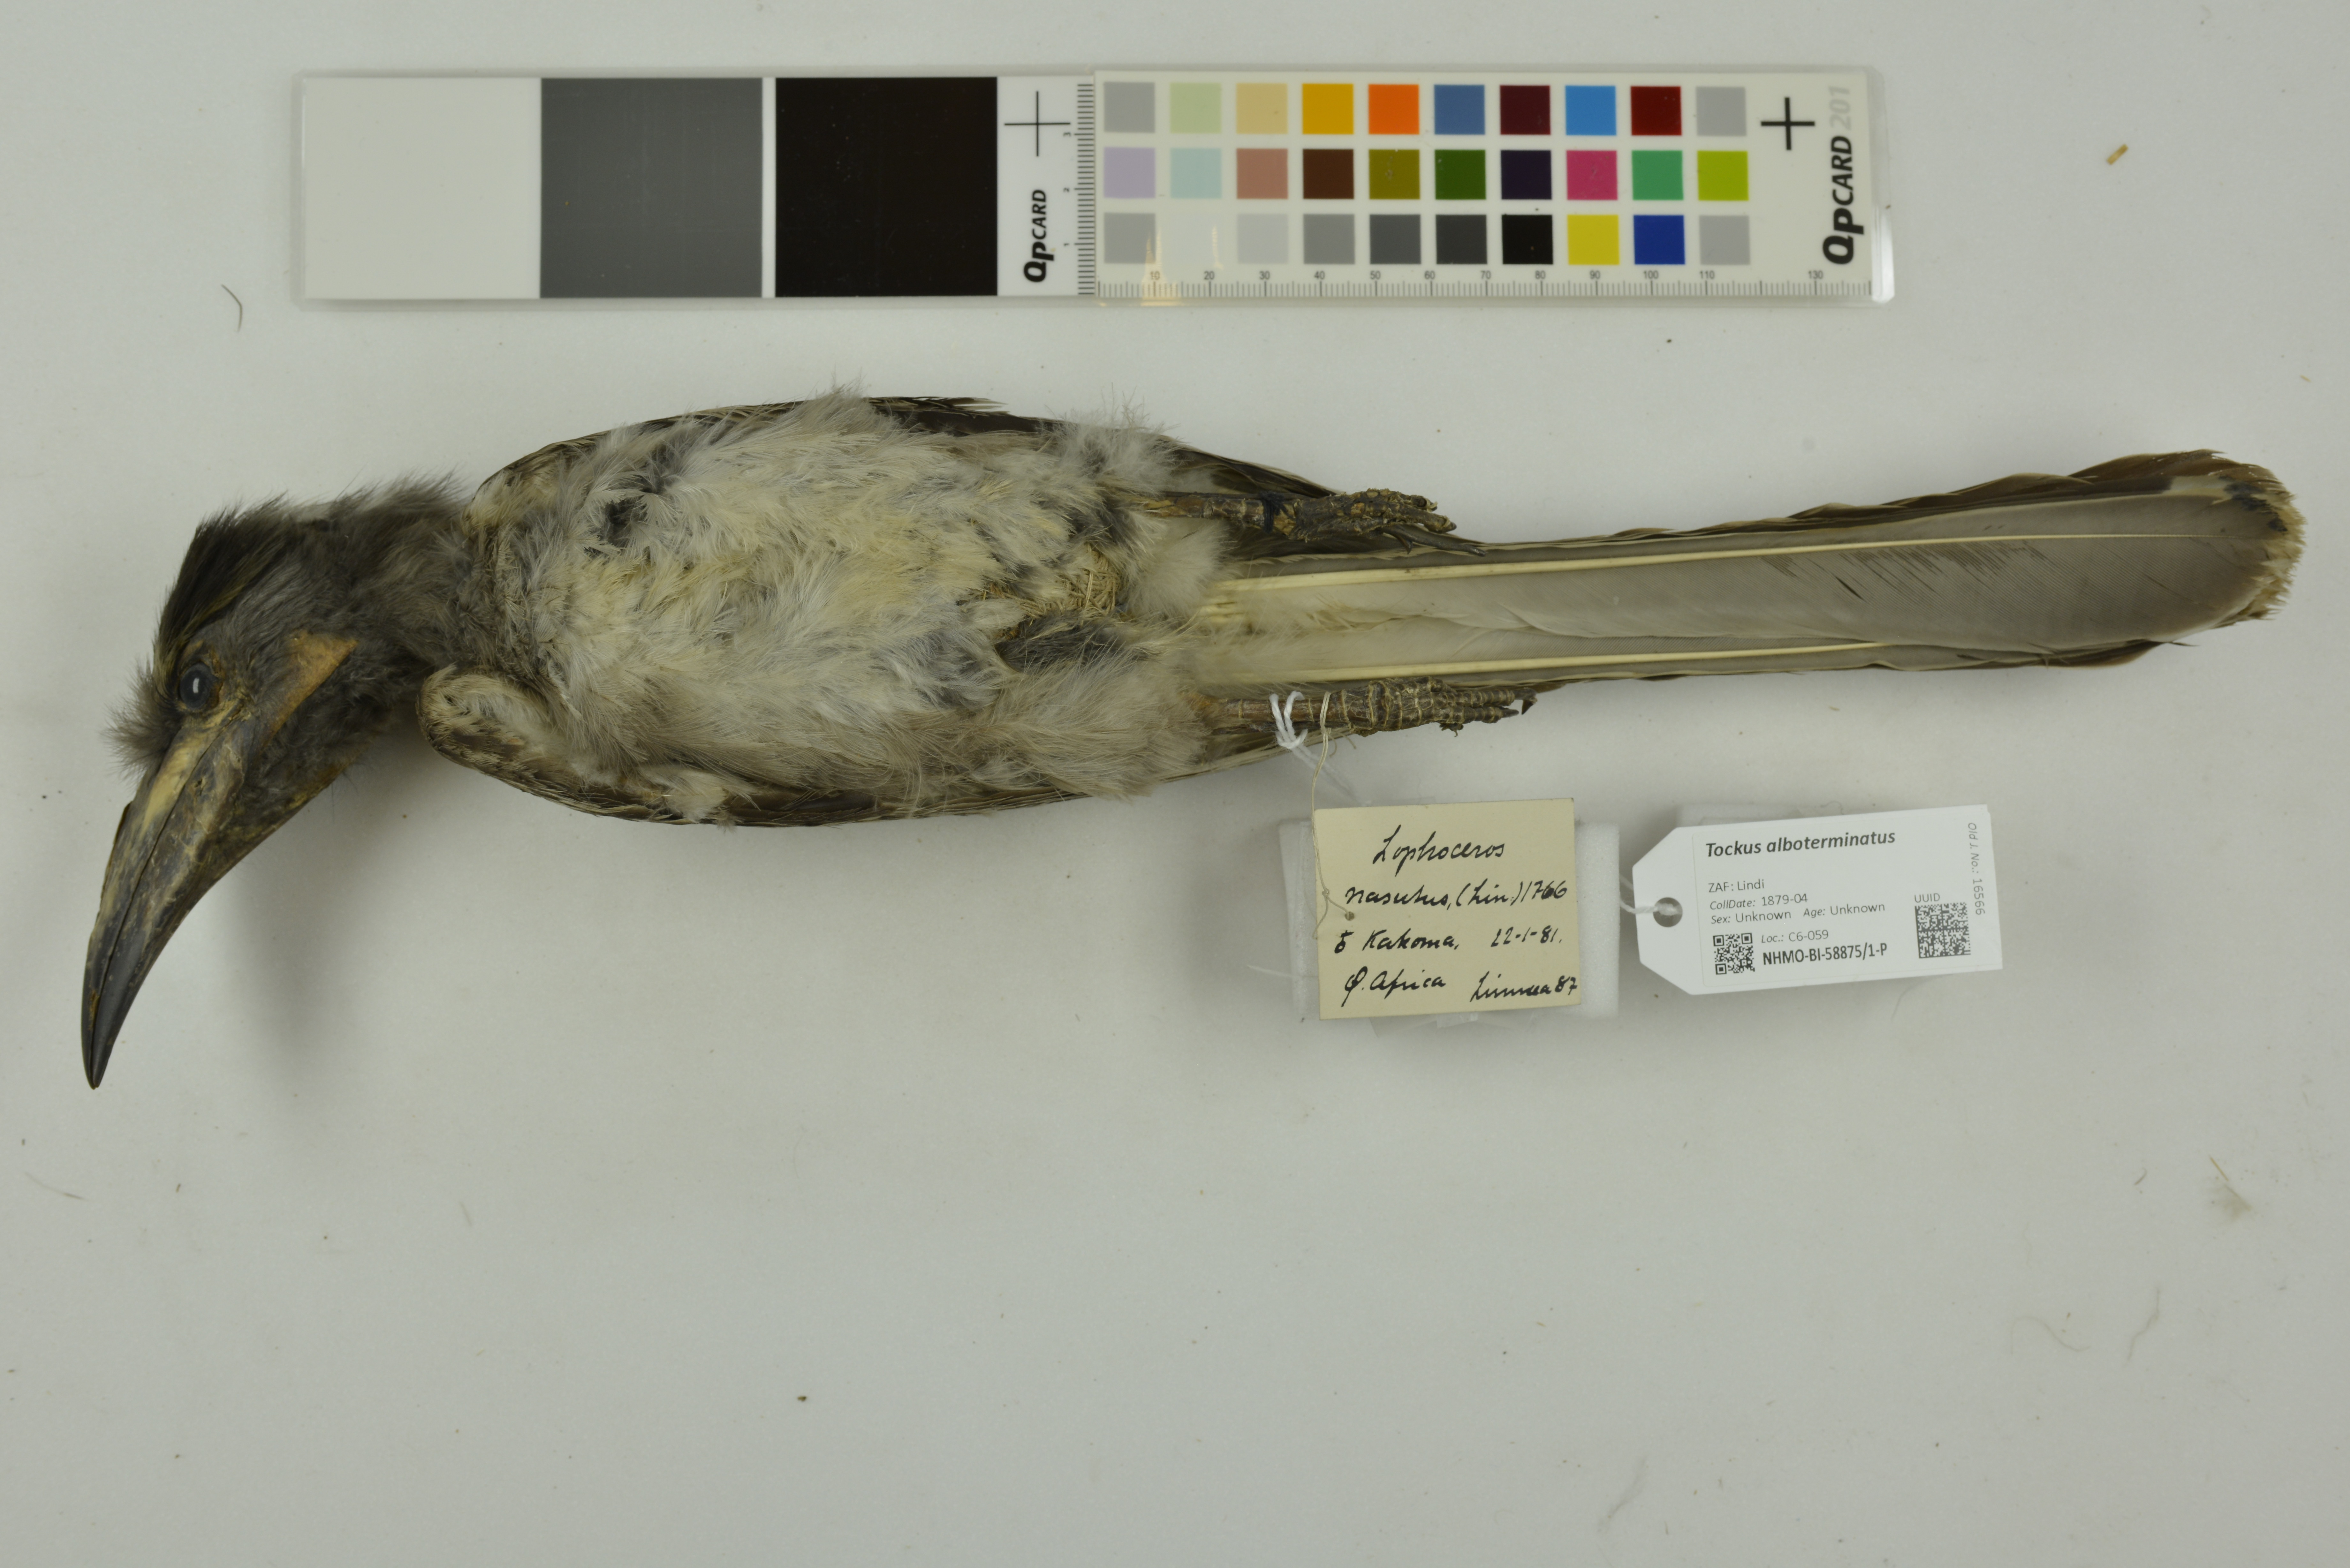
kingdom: Animalia
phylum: Chordata
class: Aves
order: Bucerotiformes
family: Bucerotidae
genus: Lophoceros
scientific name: Lophoceros alboterminatus
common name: Crowned hornbill
